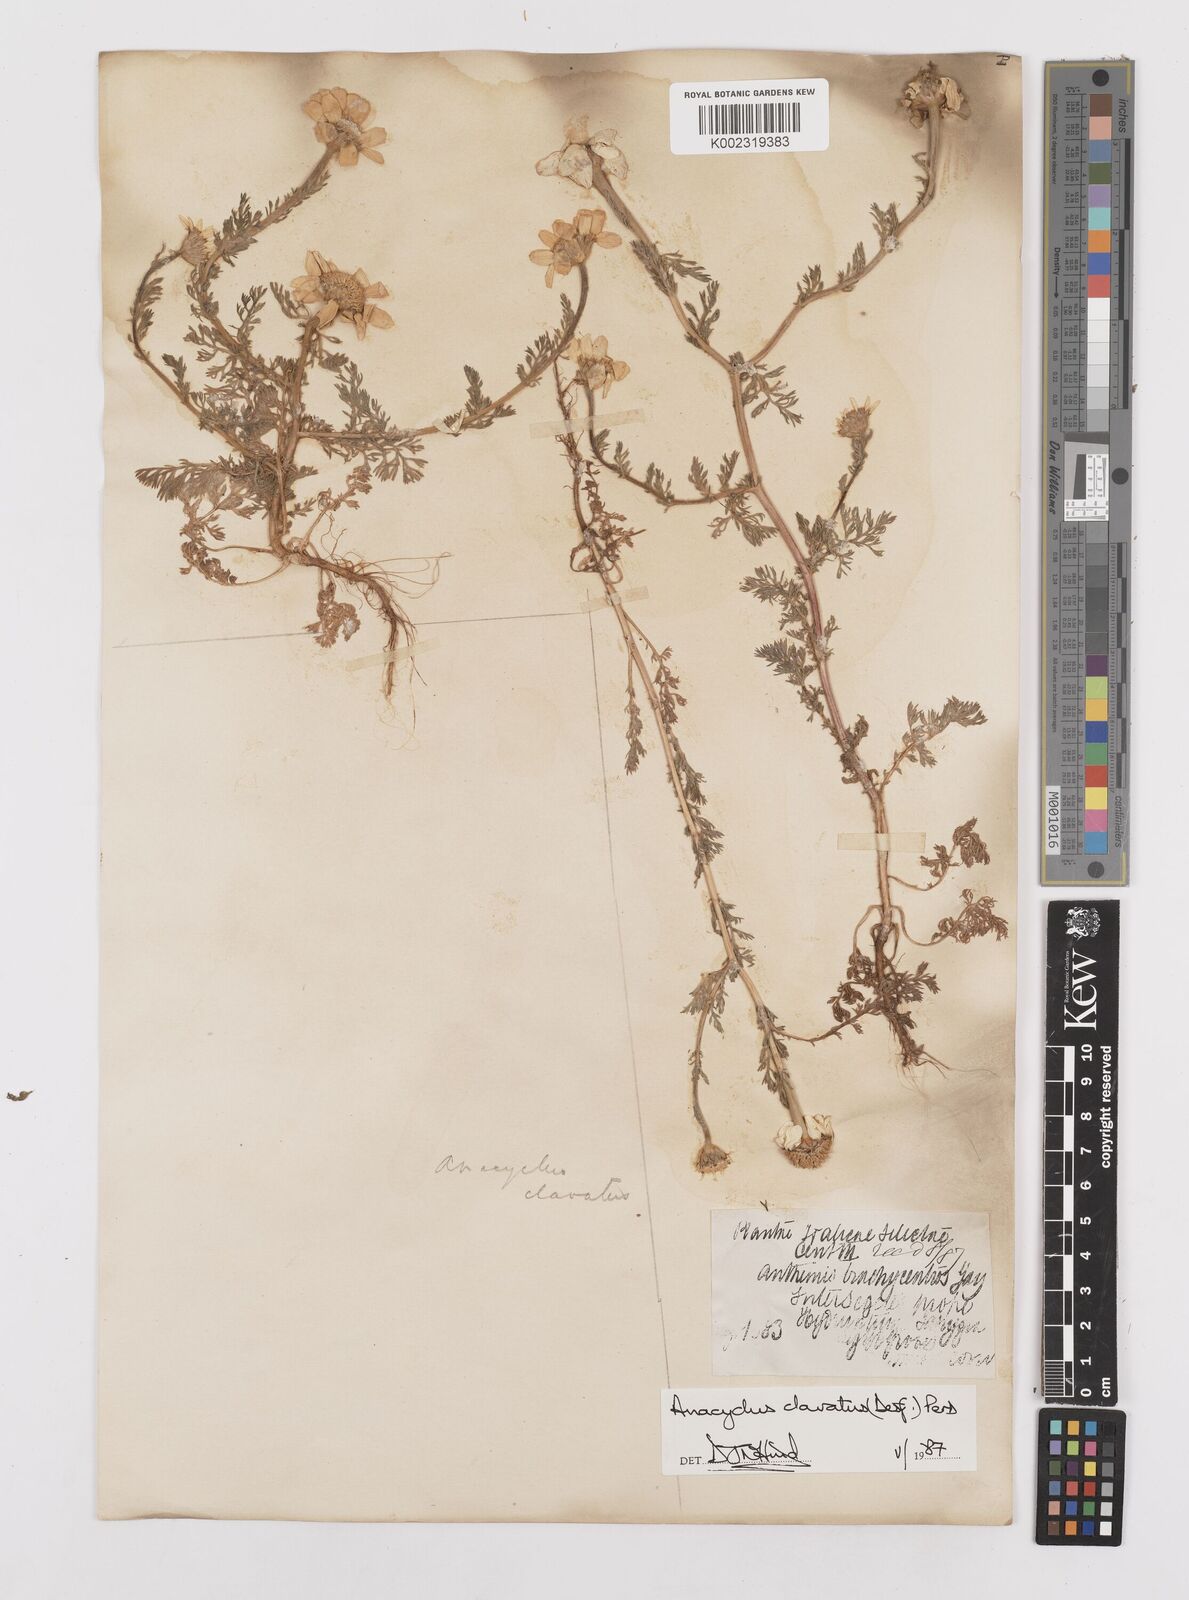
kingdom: Plantae
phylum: Tracheophyta
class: Magnoliopsida
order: Asterales
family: Asteraceae
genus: Anacyclus
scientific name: Anacyclus clavatus
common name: Whitebuttons
